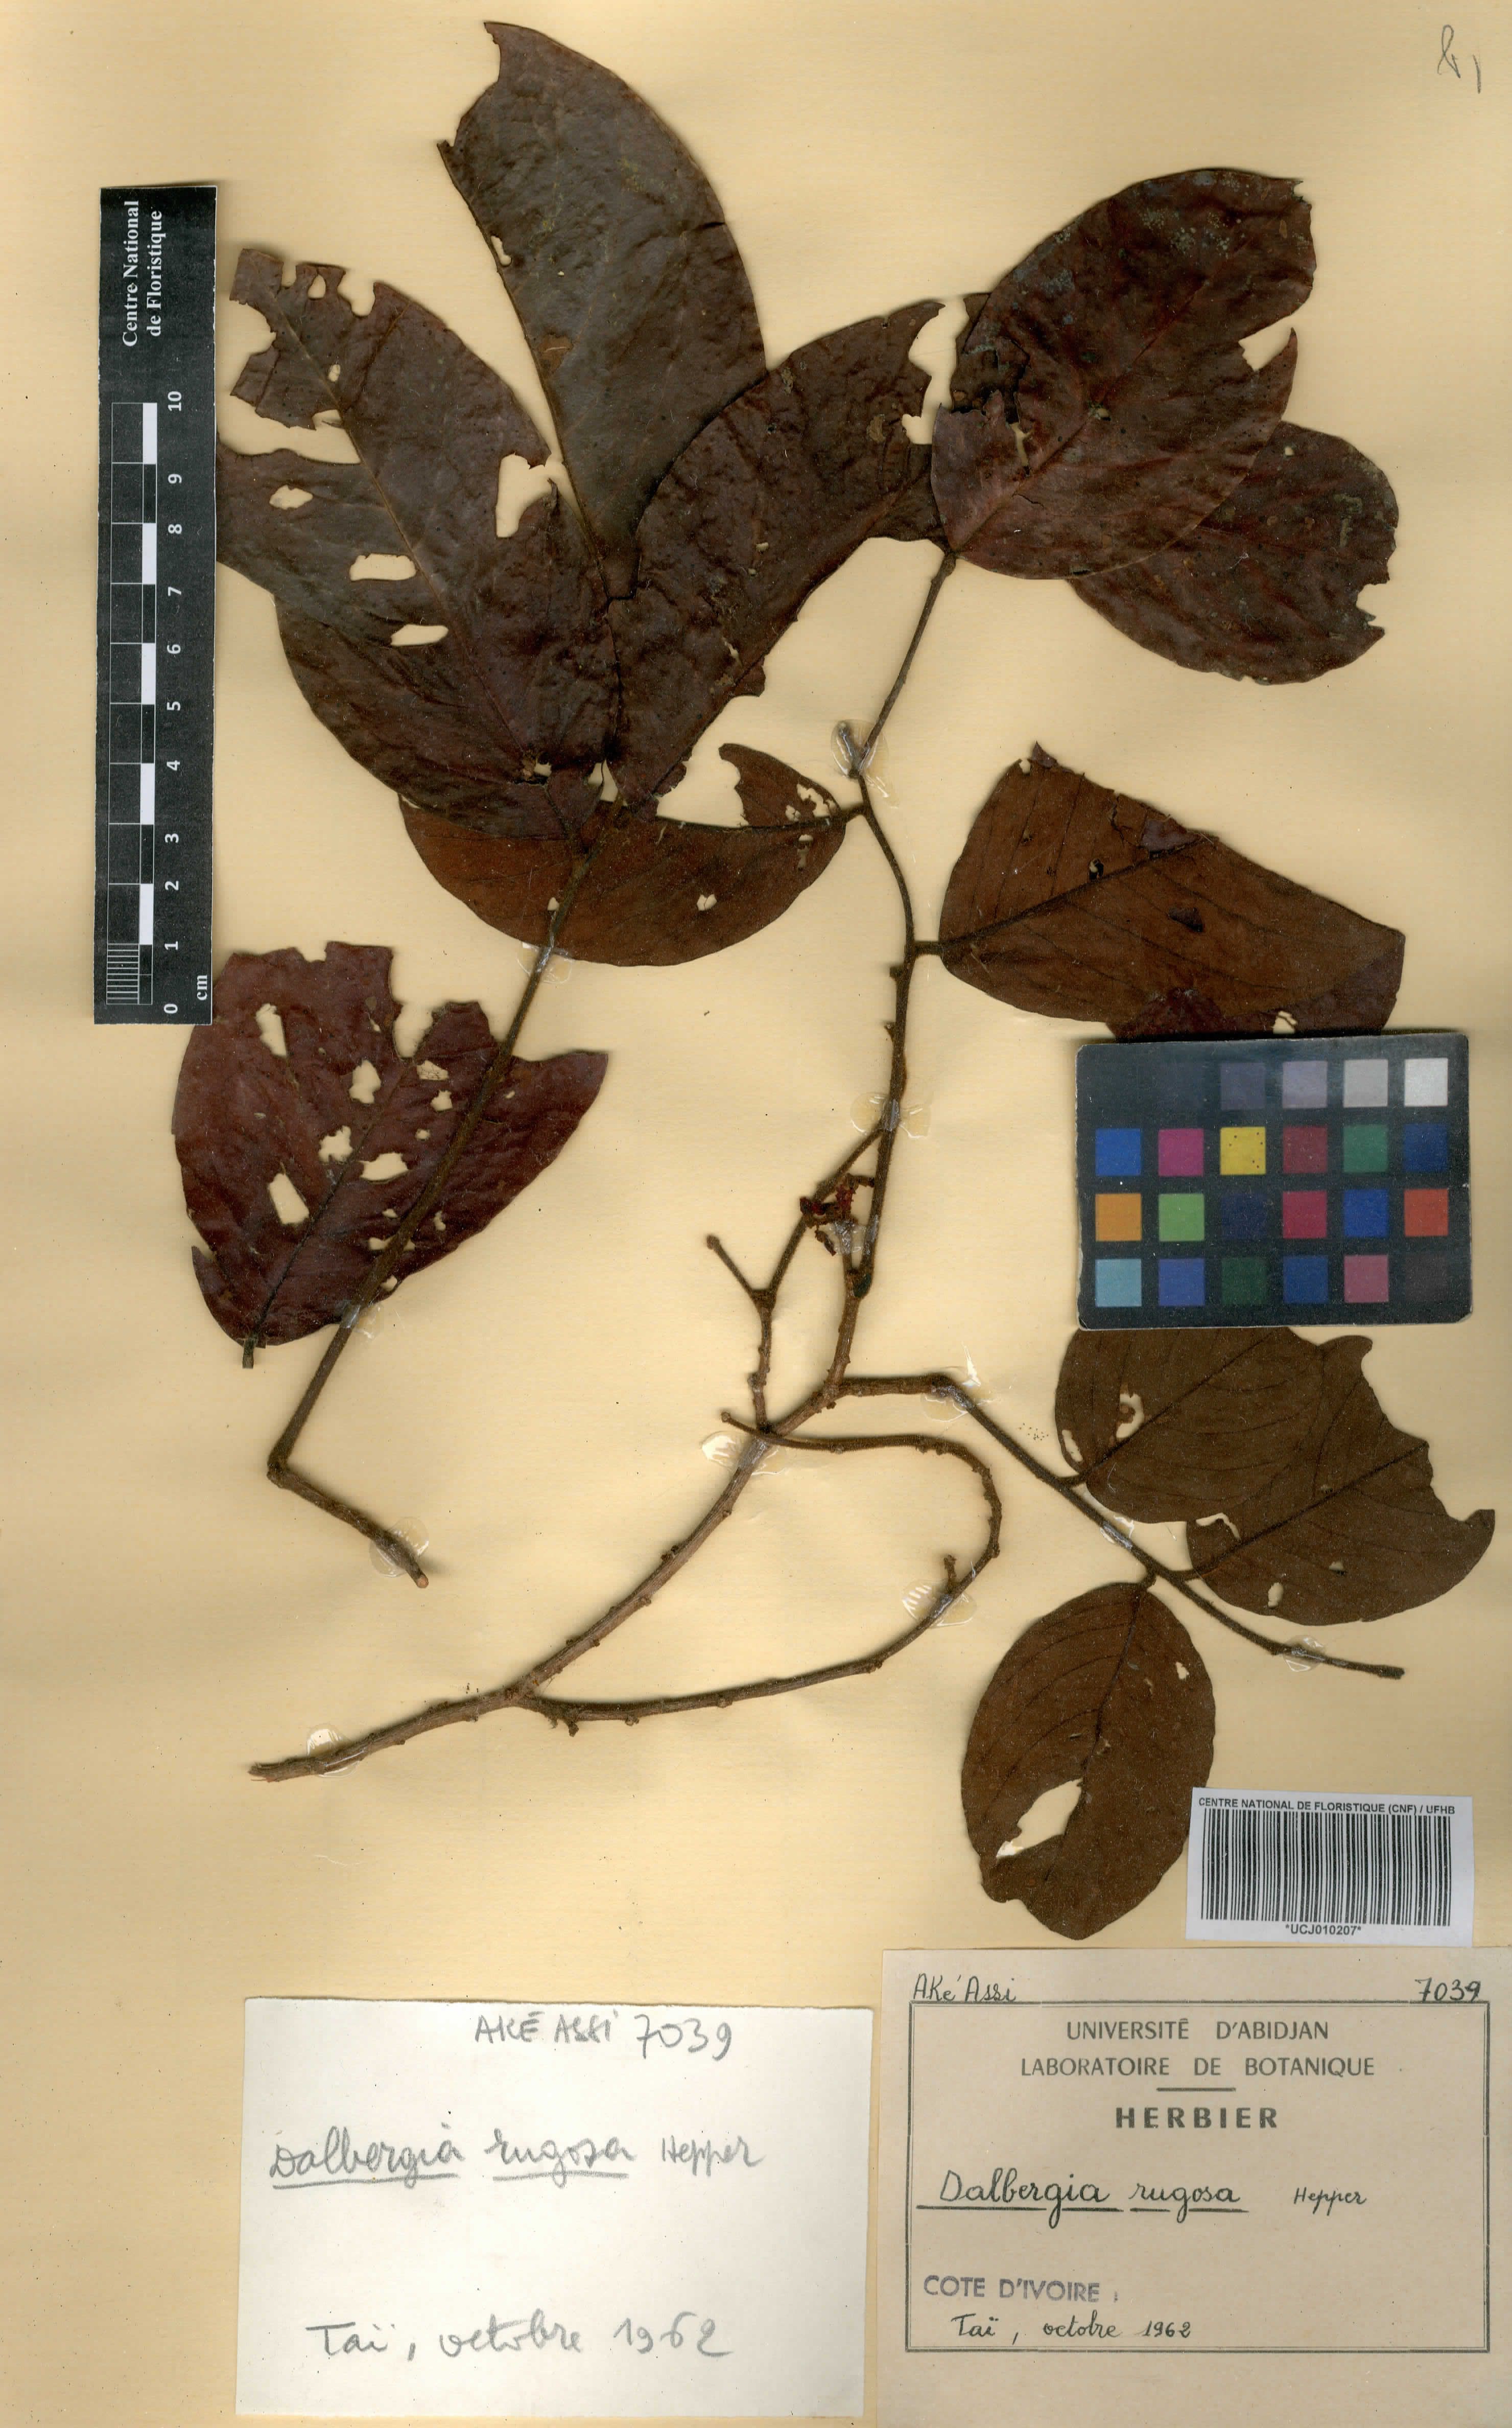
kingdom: Plantae
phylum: Tracheophyta
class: Magnoliopsida
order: Fabales
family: Fabaceae
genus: Dalbergia
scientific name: Dalbergia rugosa
